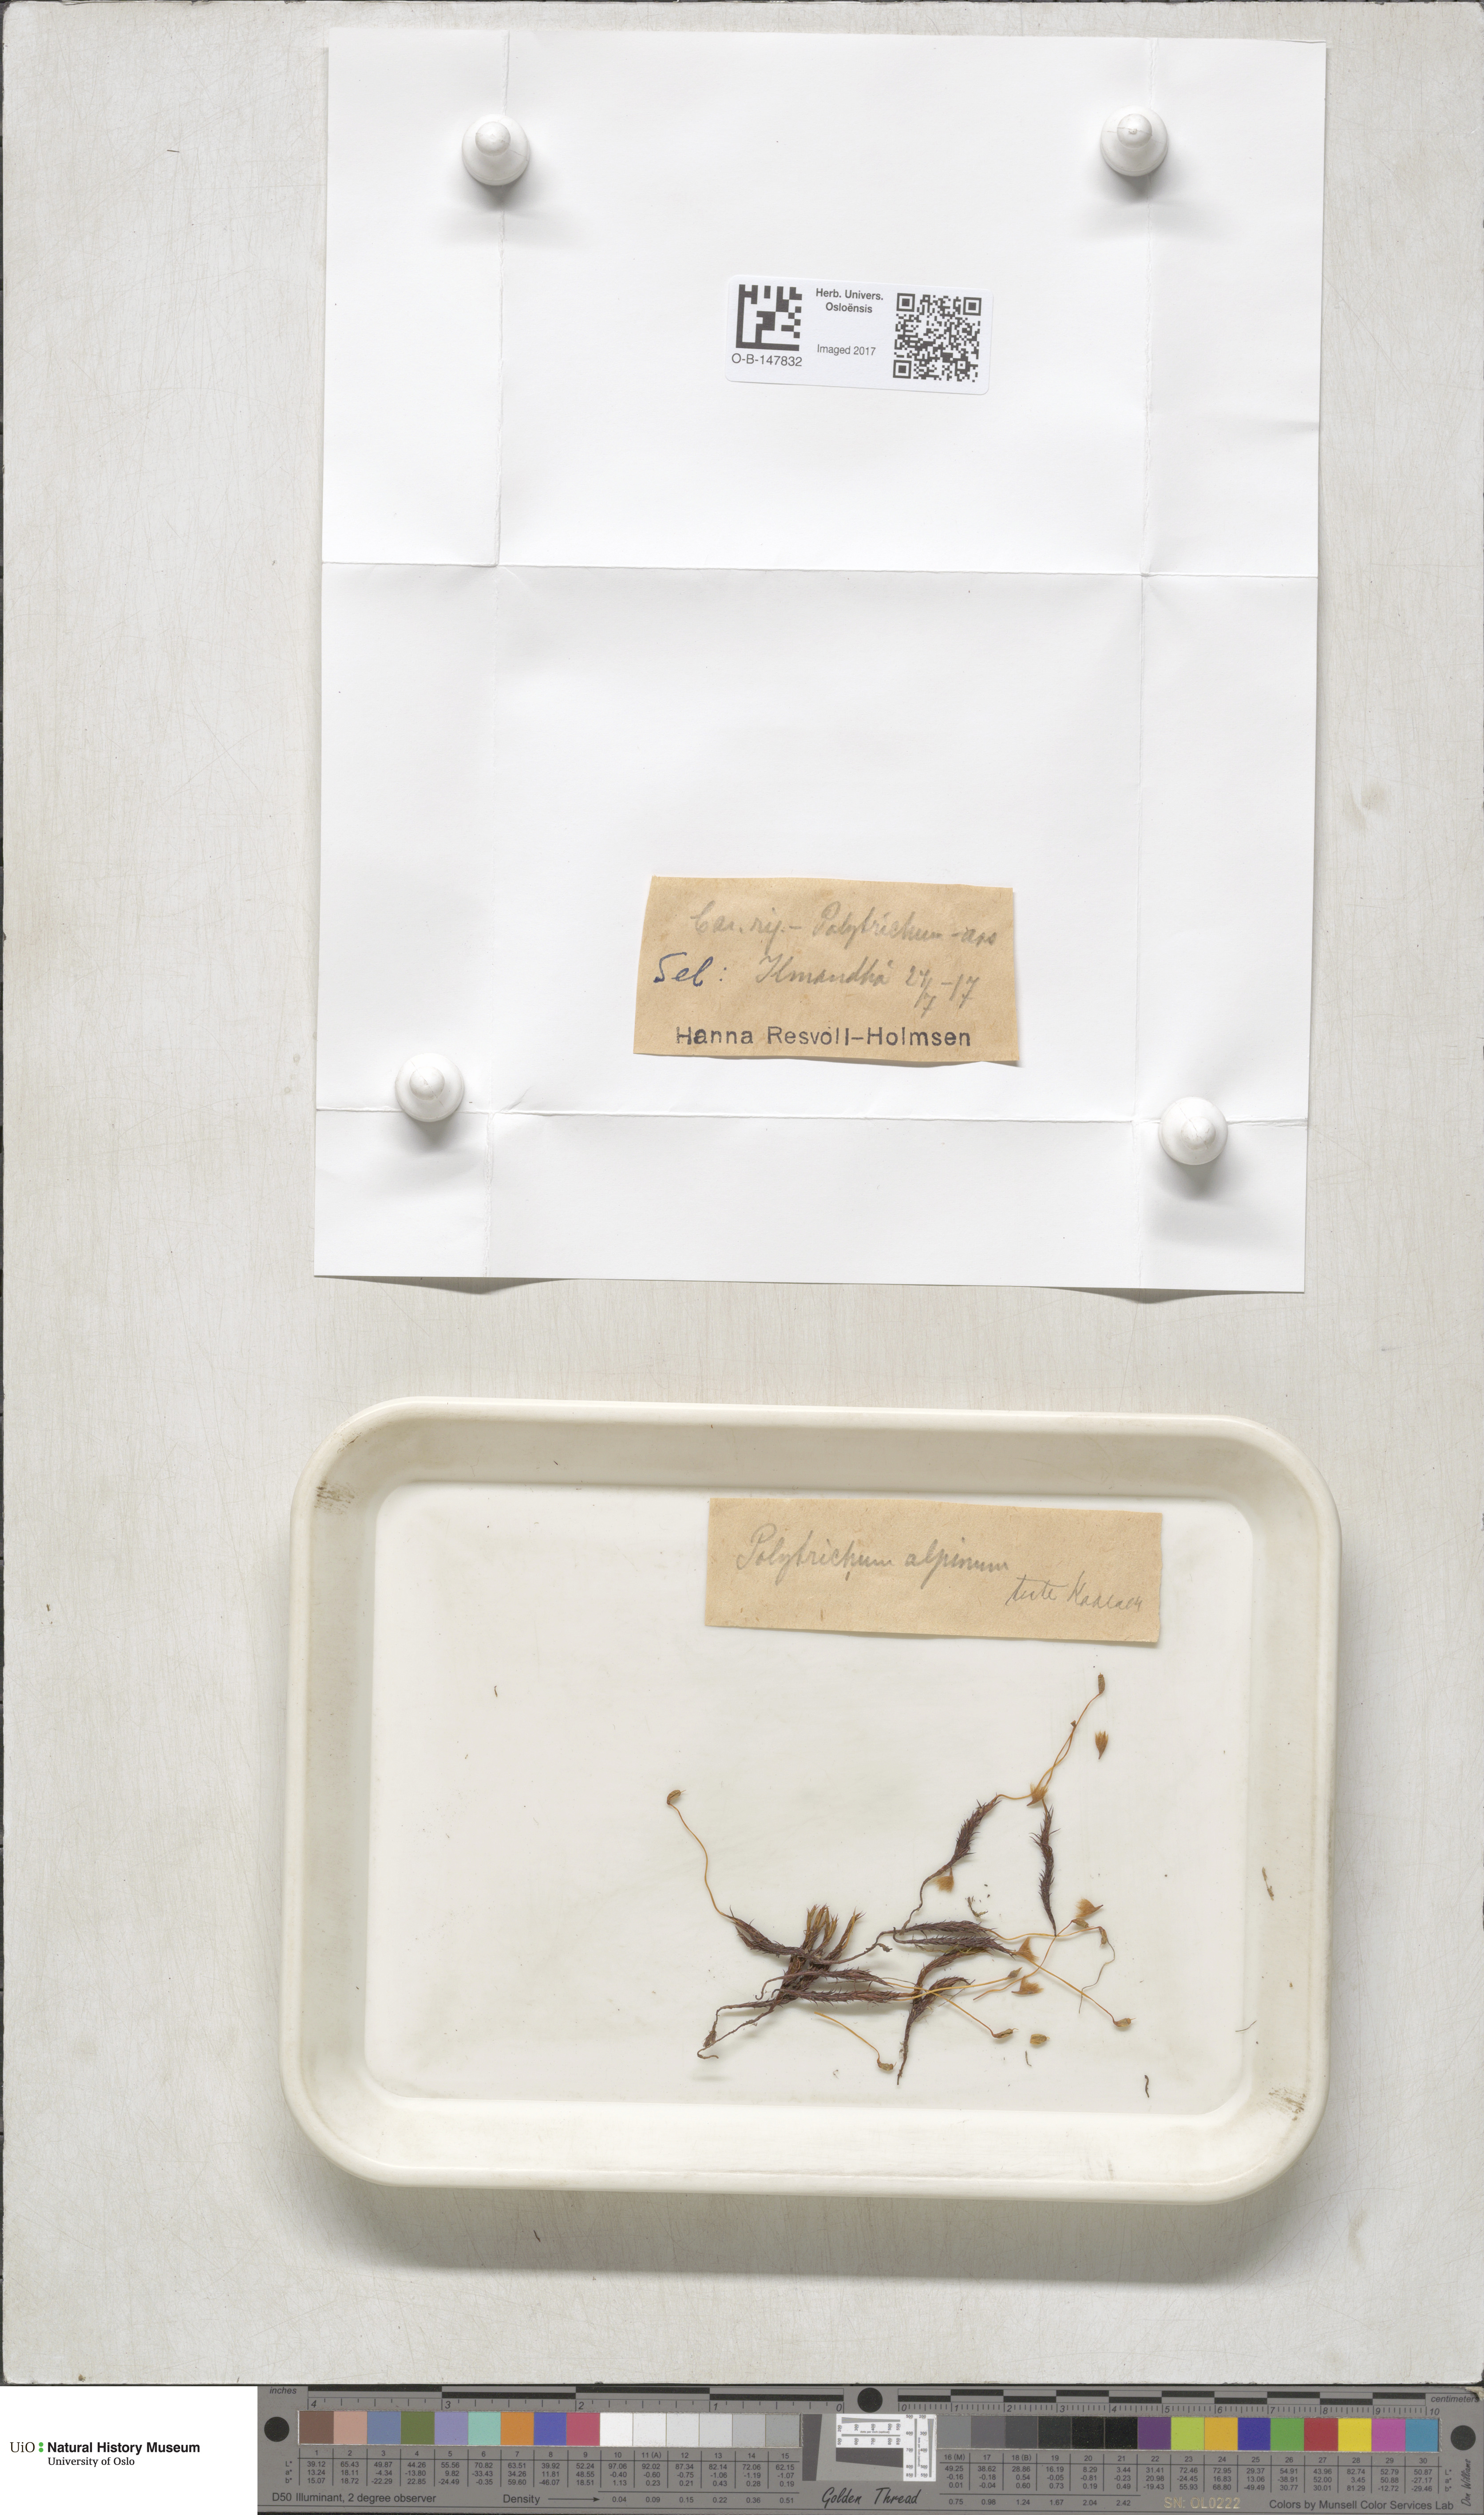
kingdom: Plantae
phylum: Bryophyta
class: Polytrichopsida
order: Polytrichales
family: Polytrichaceae
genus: Polytrichastrum
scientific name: Polytrichastrum alpinum
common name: Alpine haircap
